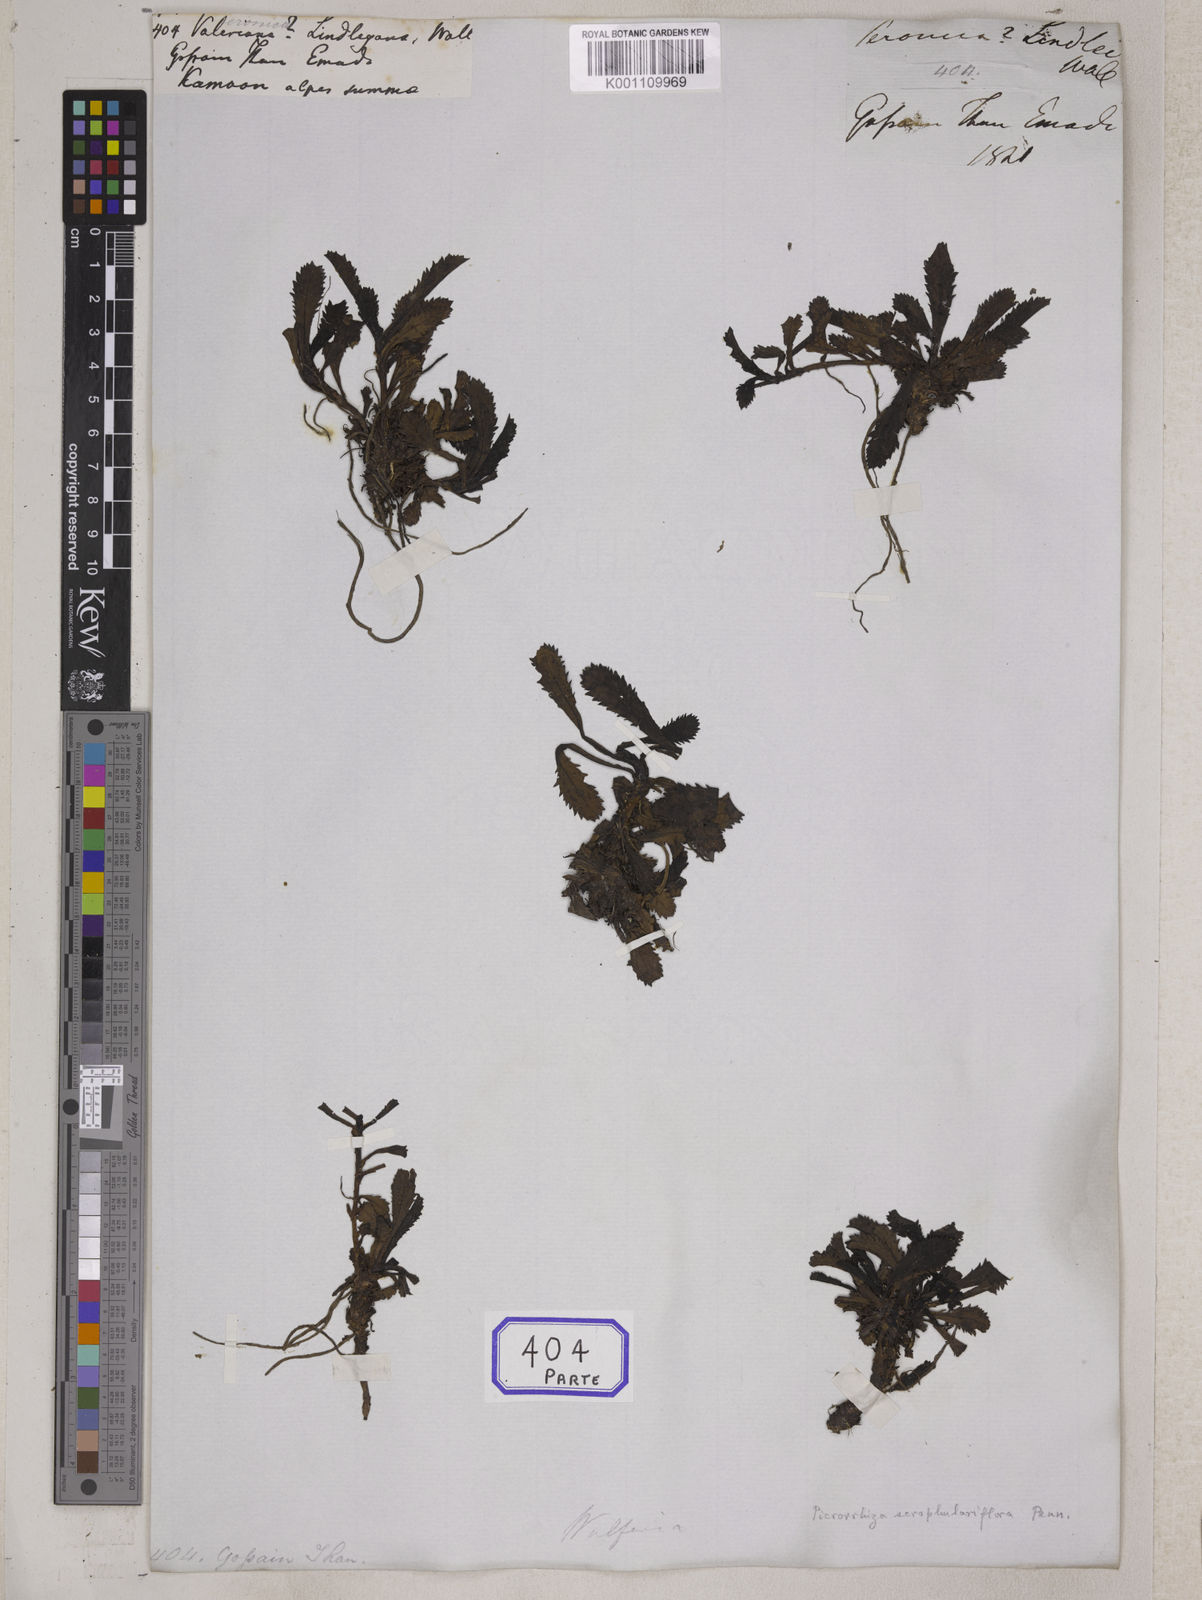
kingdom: Plantae
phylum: Tracheophyta
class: Magnoliopsida
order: Lamiales
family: Plantaginaceae
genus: Picrorhiza
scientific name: Picrorhiza
